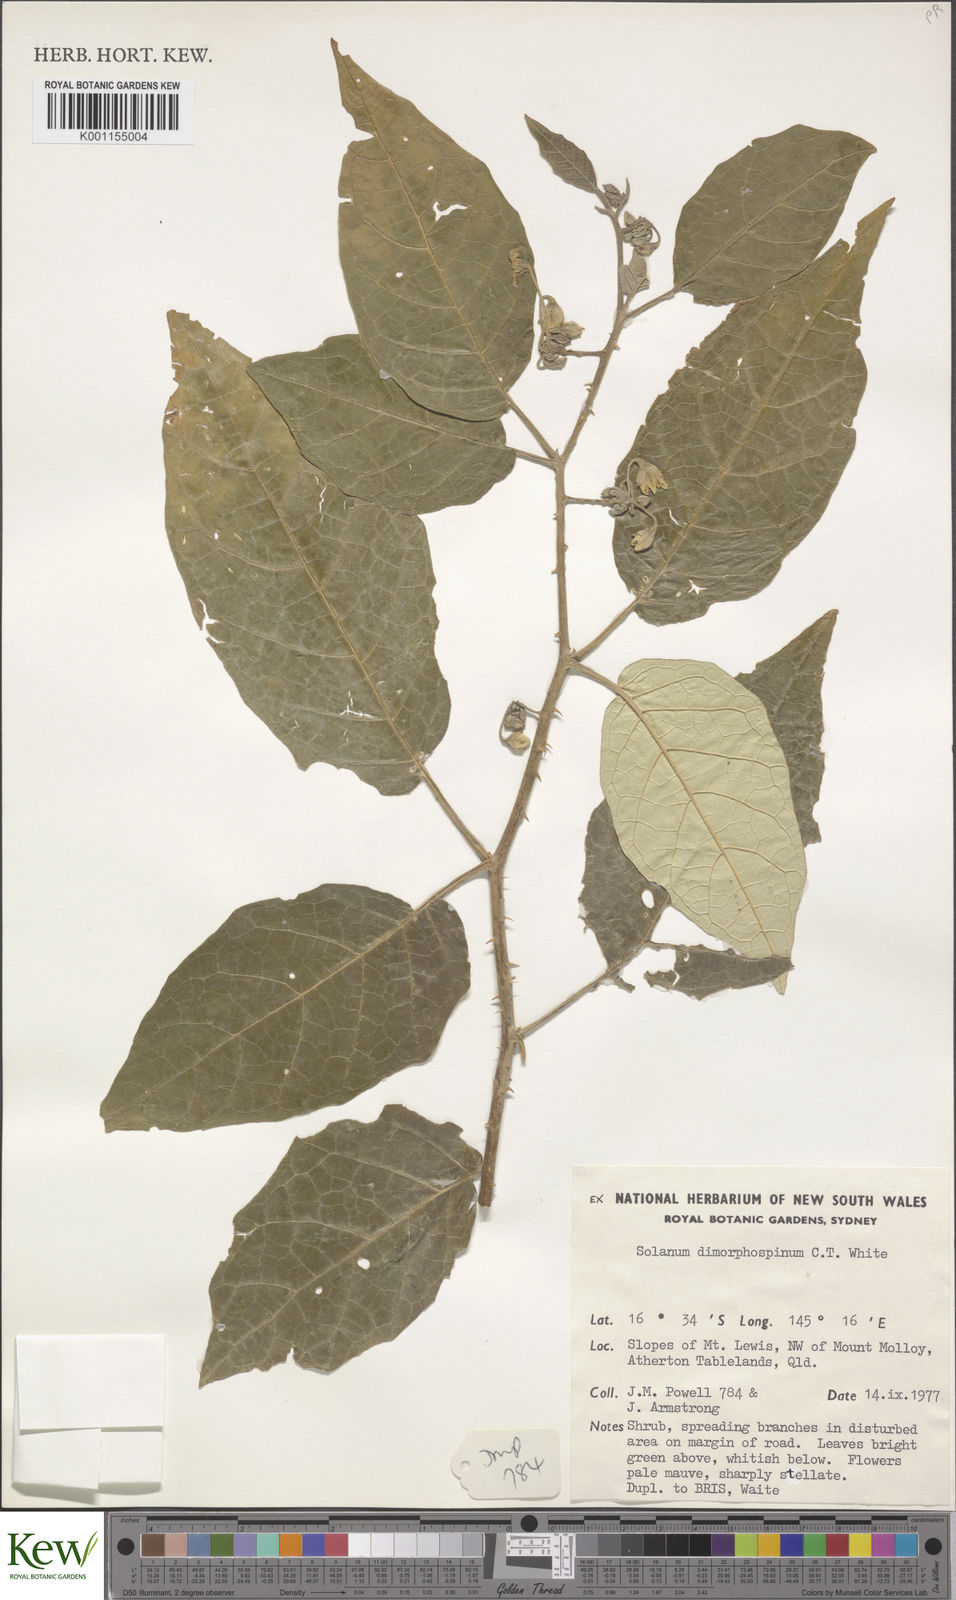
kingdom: Plantae
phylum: Tracheophyta
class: Magnoliopsida
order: Solanales
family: Solanaceae
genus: Solanum
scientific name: Solanum dimorphispinum
